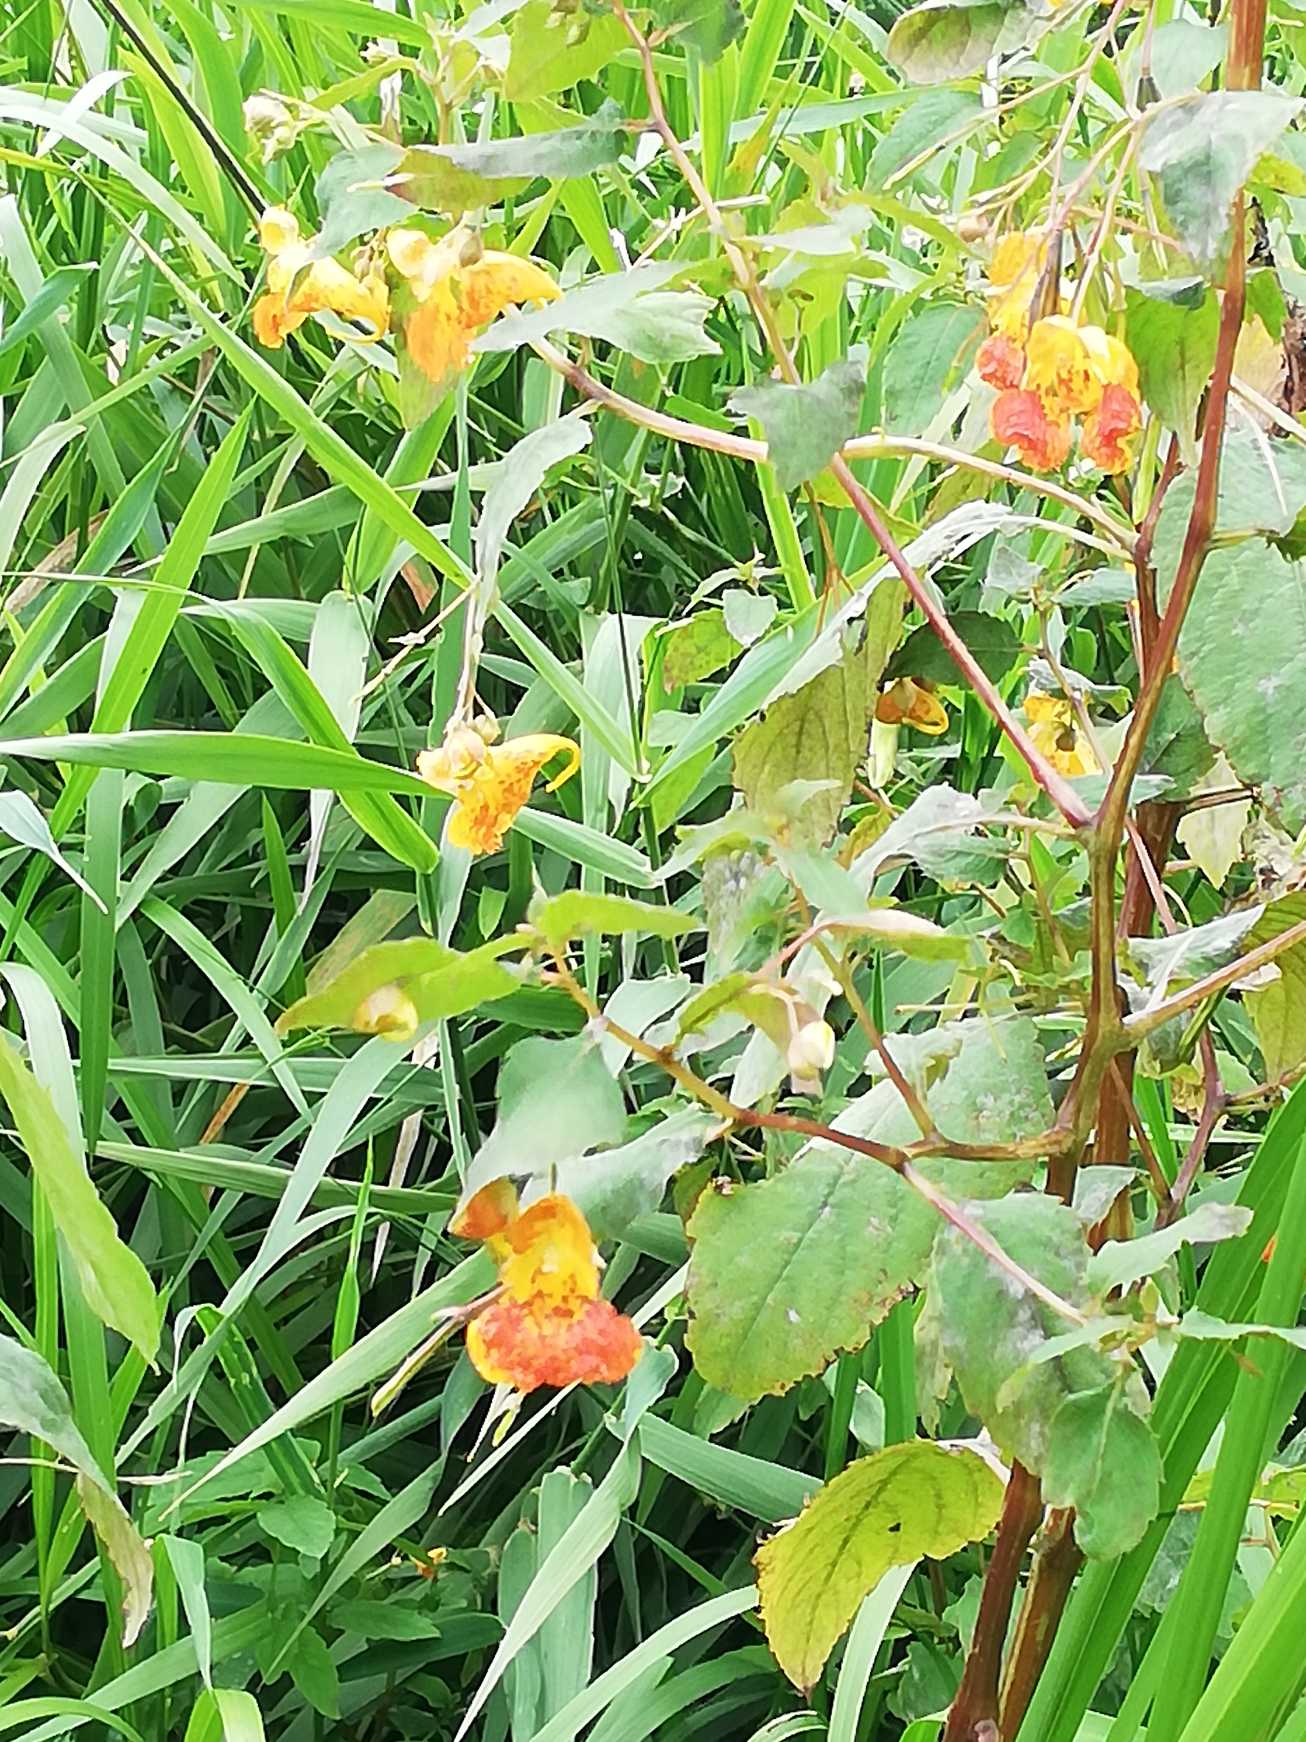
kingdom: Plantae
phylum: Tracheophyta
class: Magnoliopsida
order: Ericales
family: Balsaminaceae
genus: Impatiens
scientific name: Impatiens capensis
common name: Orange-balsamin
